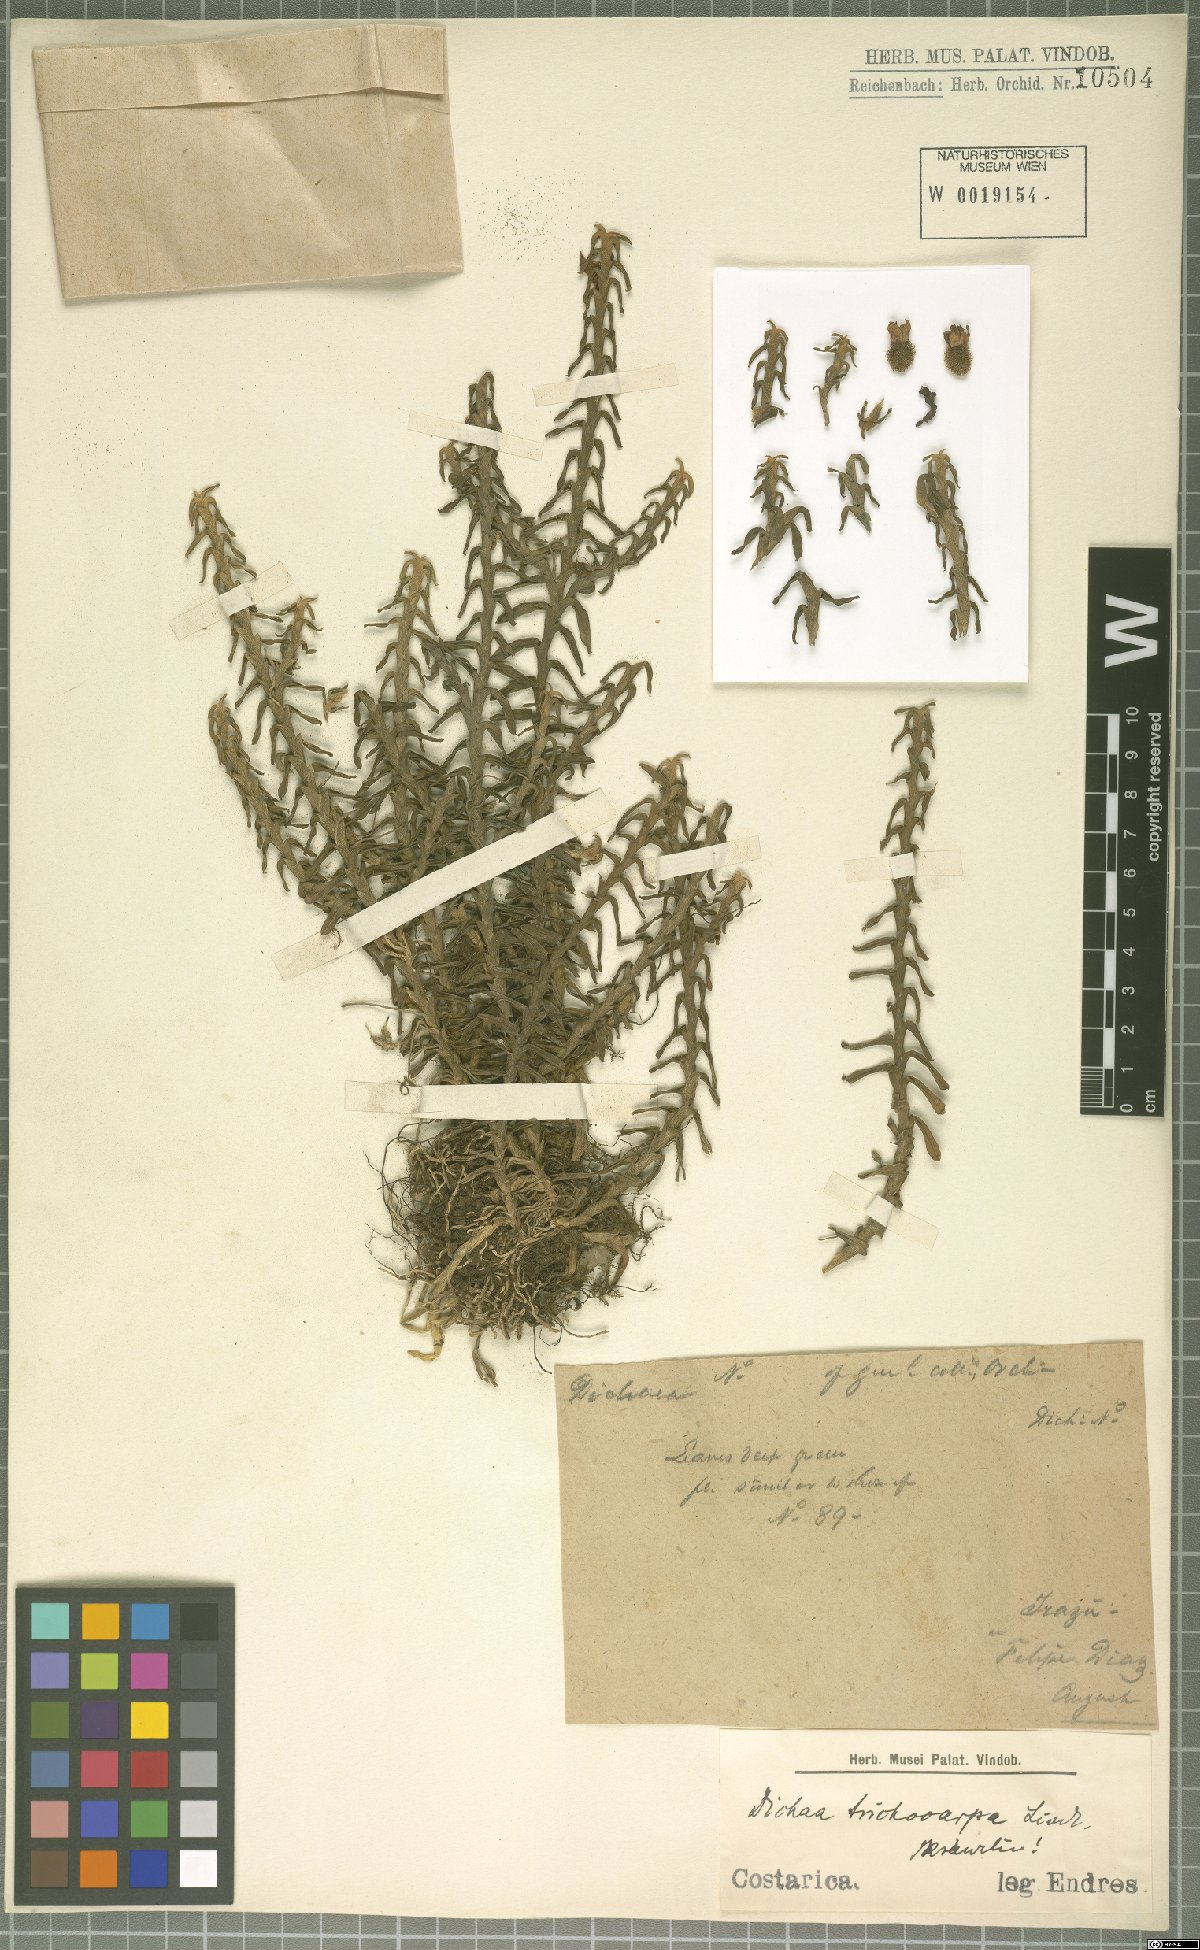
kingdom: Plantae
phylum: Tracheophyta
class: Liliopsida
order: Asparagales
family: Orchidaceae
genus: Dichaea
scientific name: Dichaea trichocarpa
